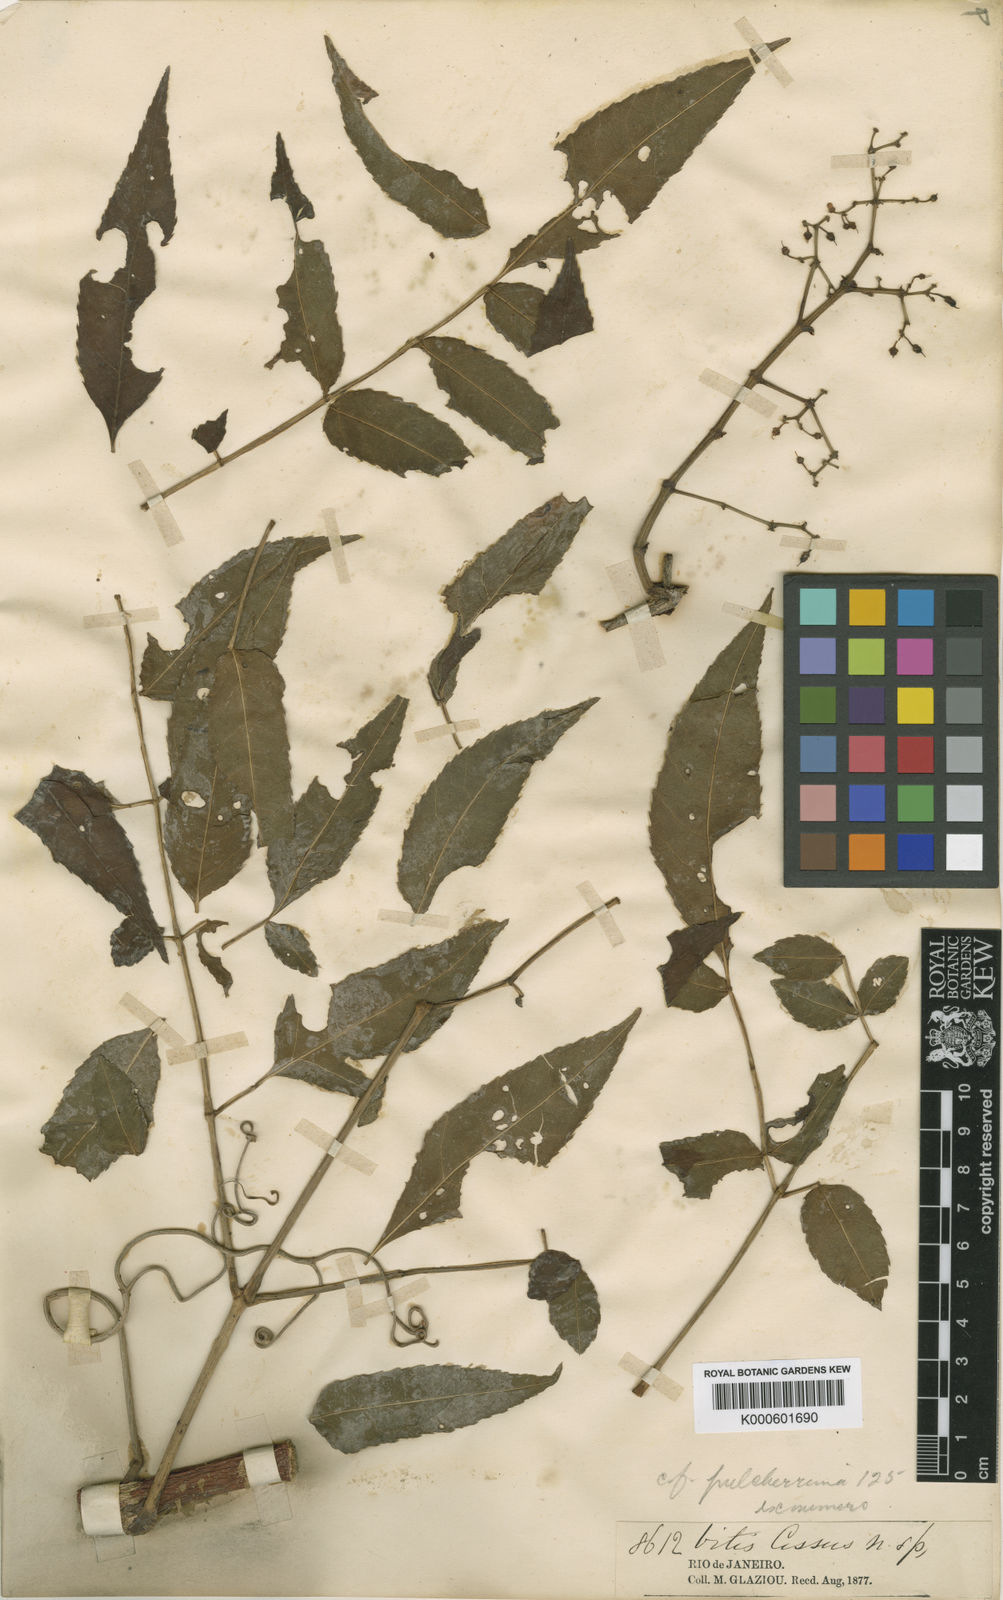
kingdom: Plantae
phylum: Tracheophyta
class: Magnoliopsida
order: Vitales
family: Vitaceae
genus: Cissus
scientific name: Cissus serroniana
